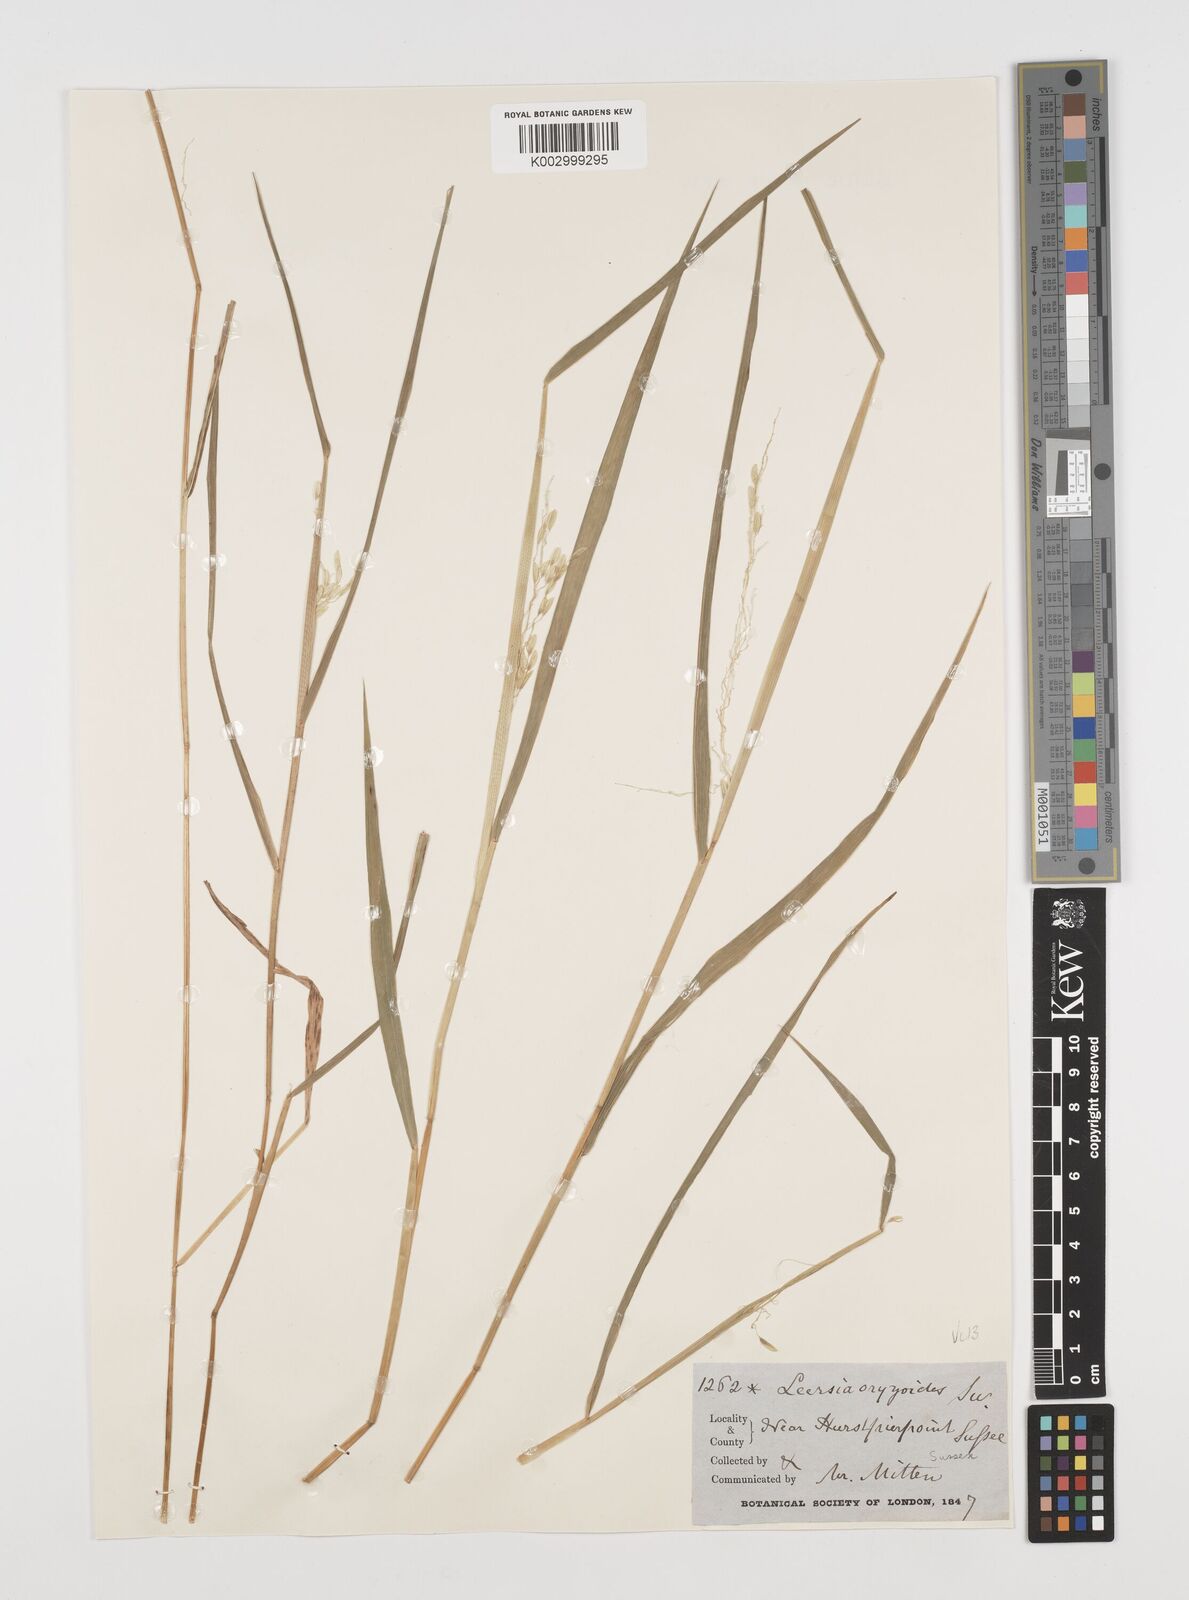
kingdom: Plantae
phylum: Tracheophyta
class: Liliopsida
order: Poales
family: Poaceae
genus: Leersia
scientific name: Leersia oryzoides
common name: Cut-grass
